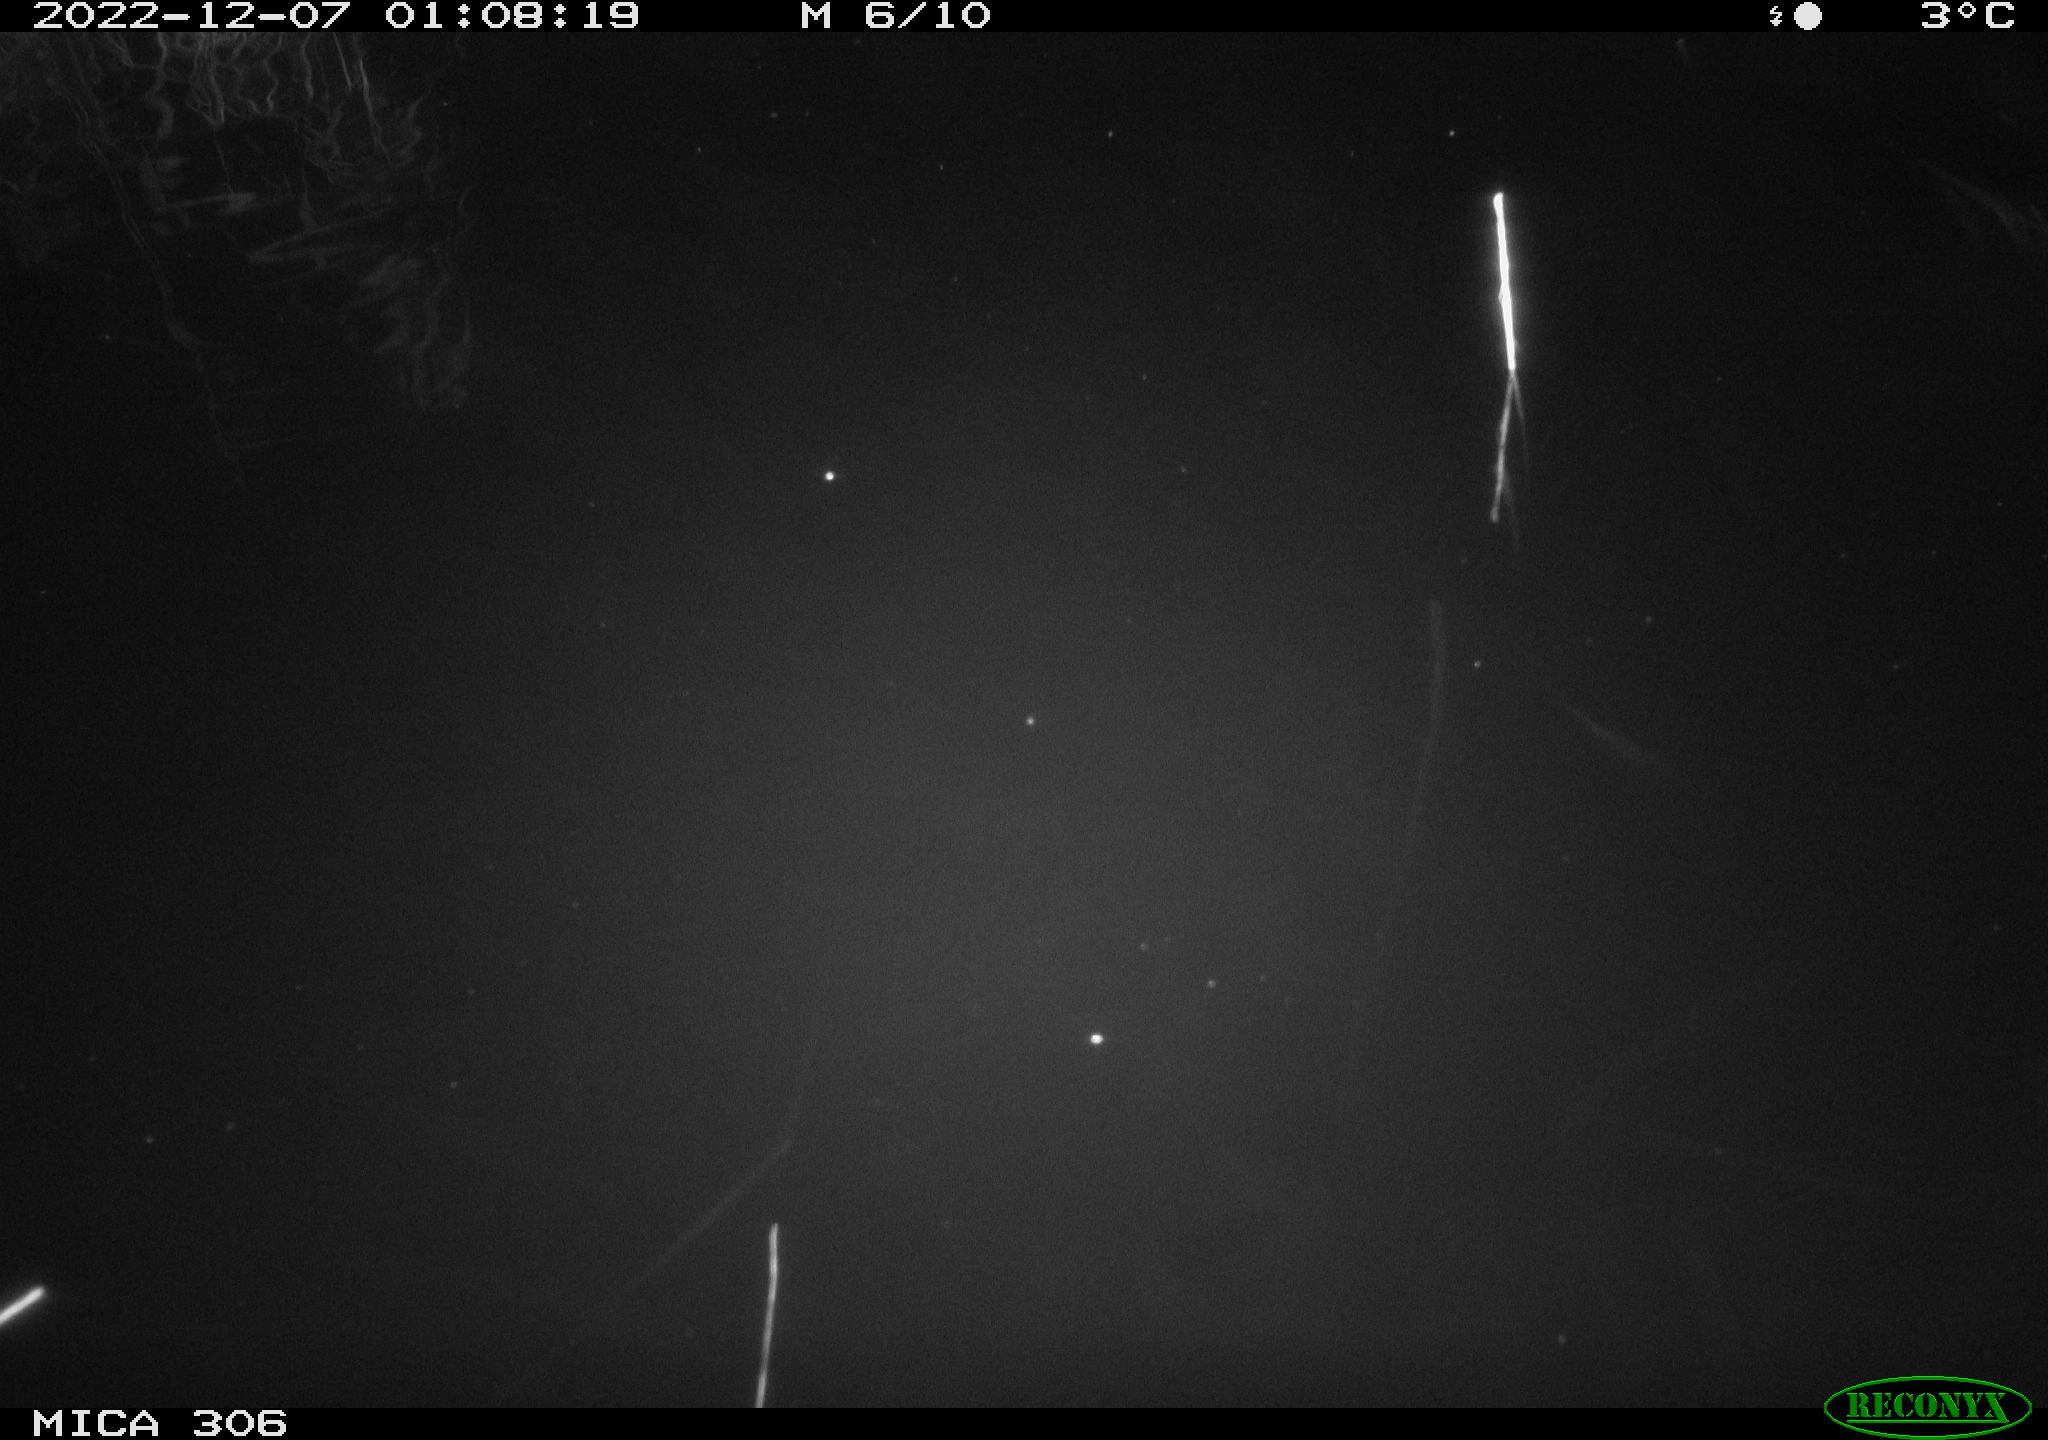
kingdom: Animalia
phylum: Chordata
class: Mammalia
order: Rodentia
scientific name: Rodentia
